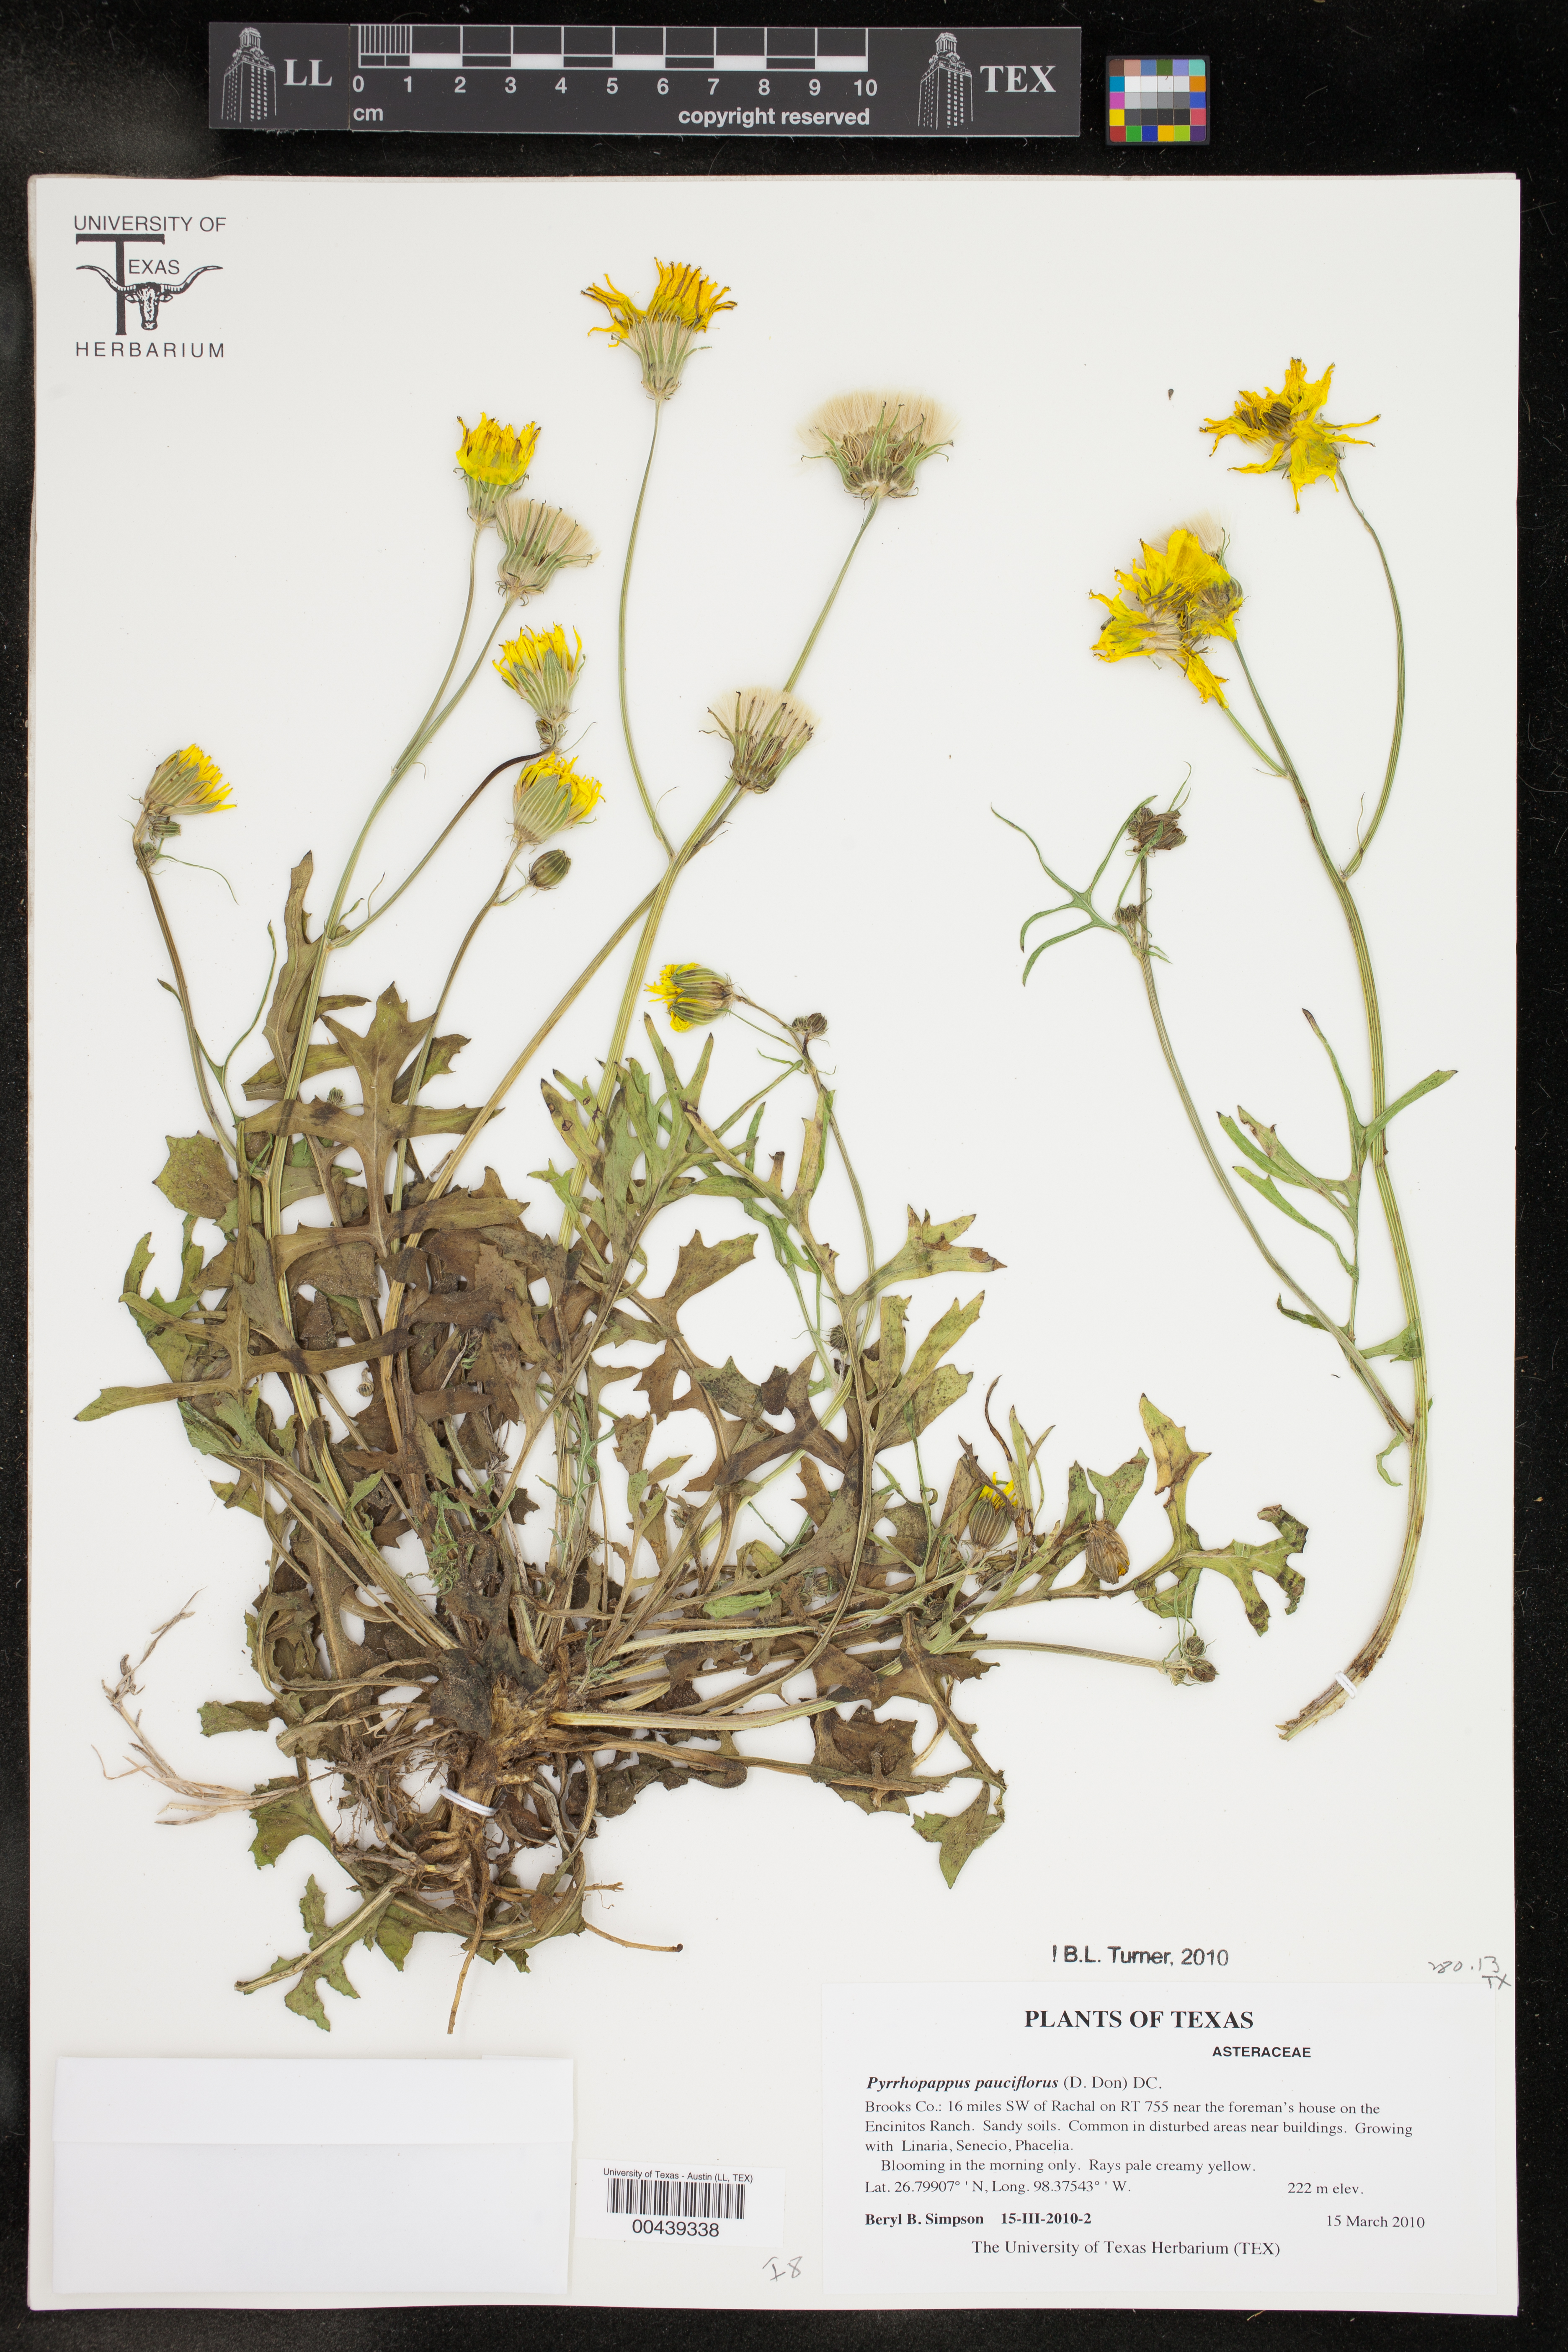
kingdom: Plantae
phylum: Tracheophyta
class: Magnoliopsida
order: Asterales
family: Asteraceae
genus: Pyrrhopappus
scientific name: Pyrrhopappus pauciflorus
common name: Texas false dandelion
